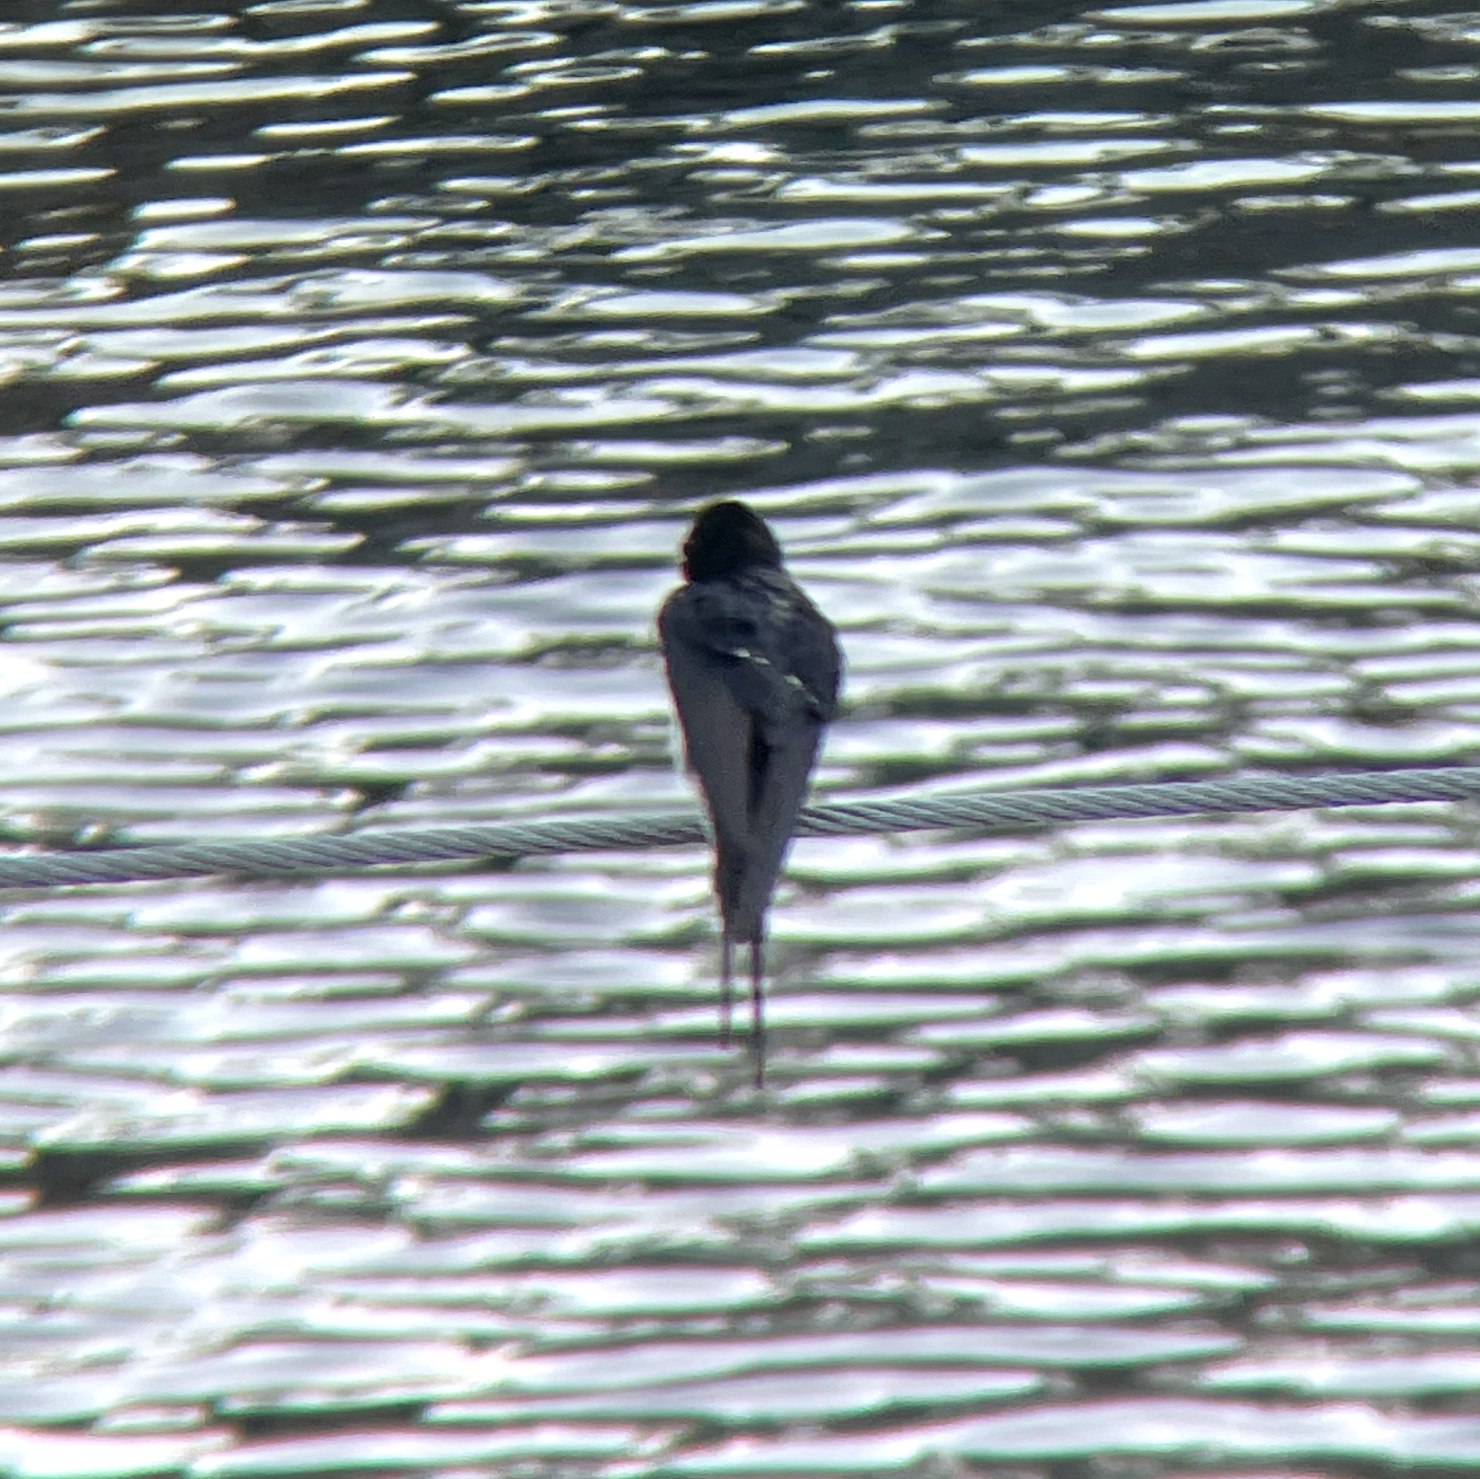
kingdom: Animalia
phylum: Chordata
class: Aves
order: Passeriformes
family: Hirundinidae
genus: Hirundo
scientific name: Hirundo rustica
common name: Landsvale
